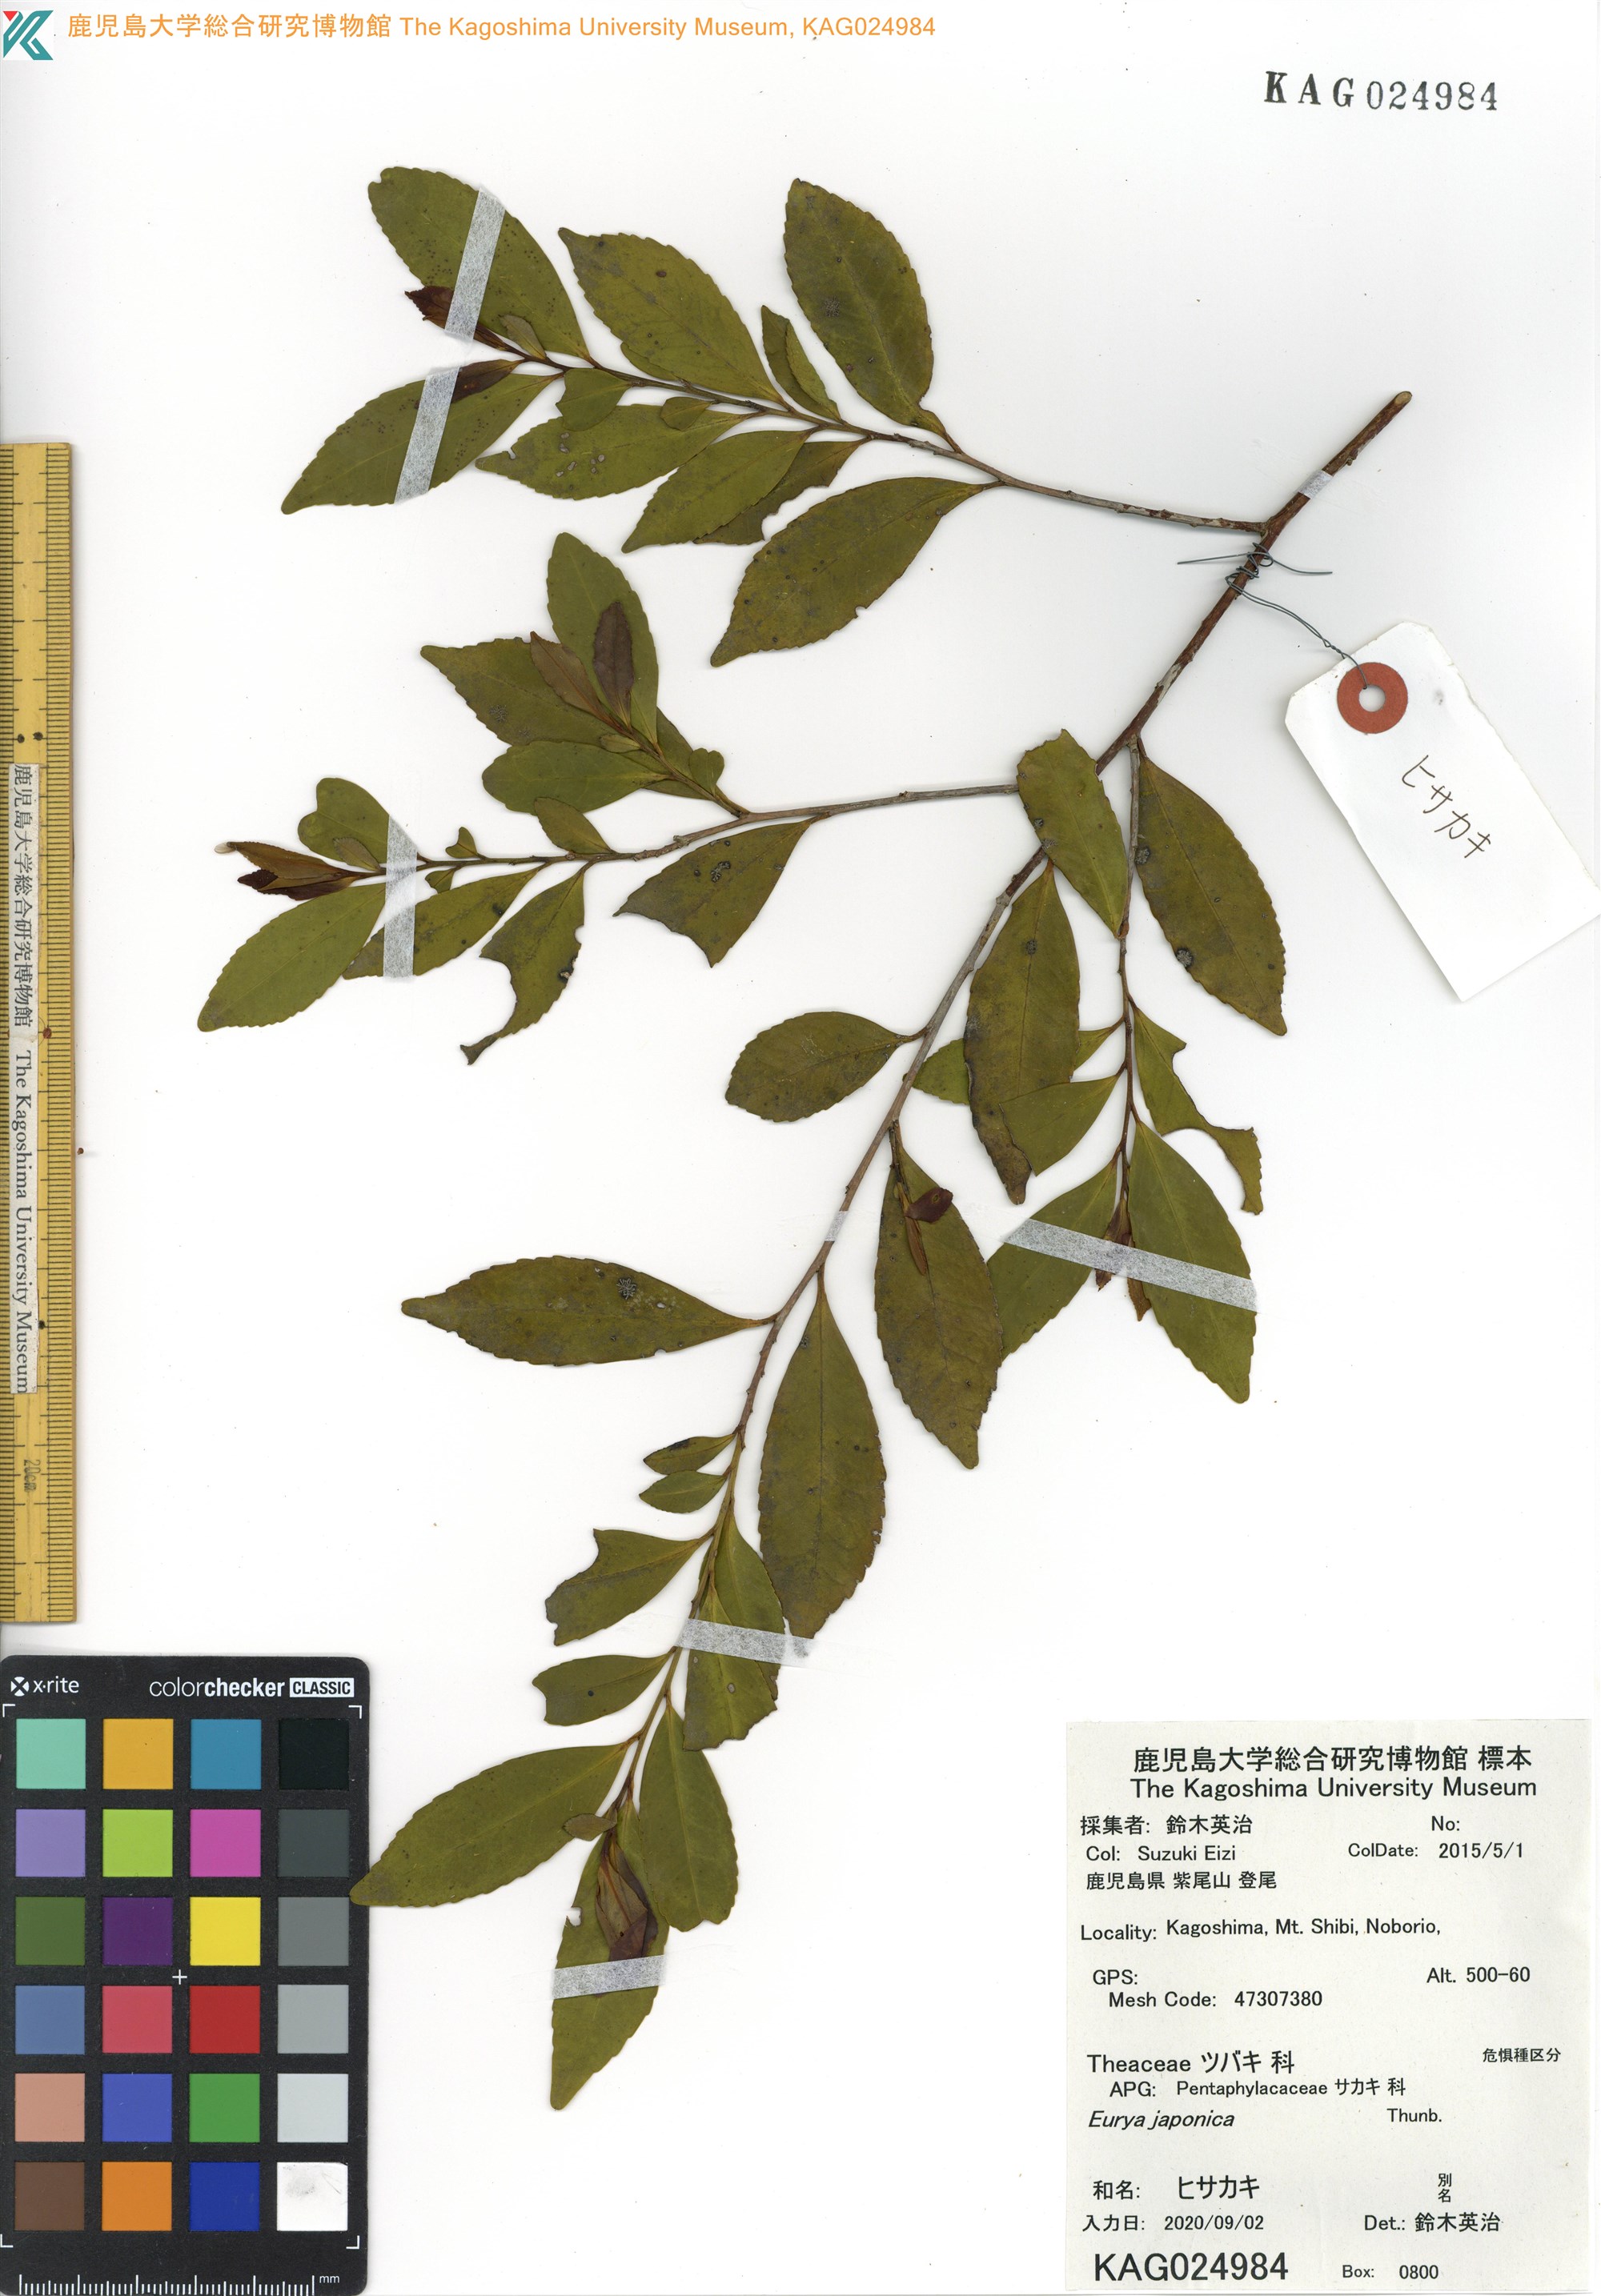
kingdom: Plantae
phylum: Tracheophyta
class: Magnoliopsida
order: Ericales
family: Pentaphylacaceae
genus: Eurya
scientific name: Eurya japonica
